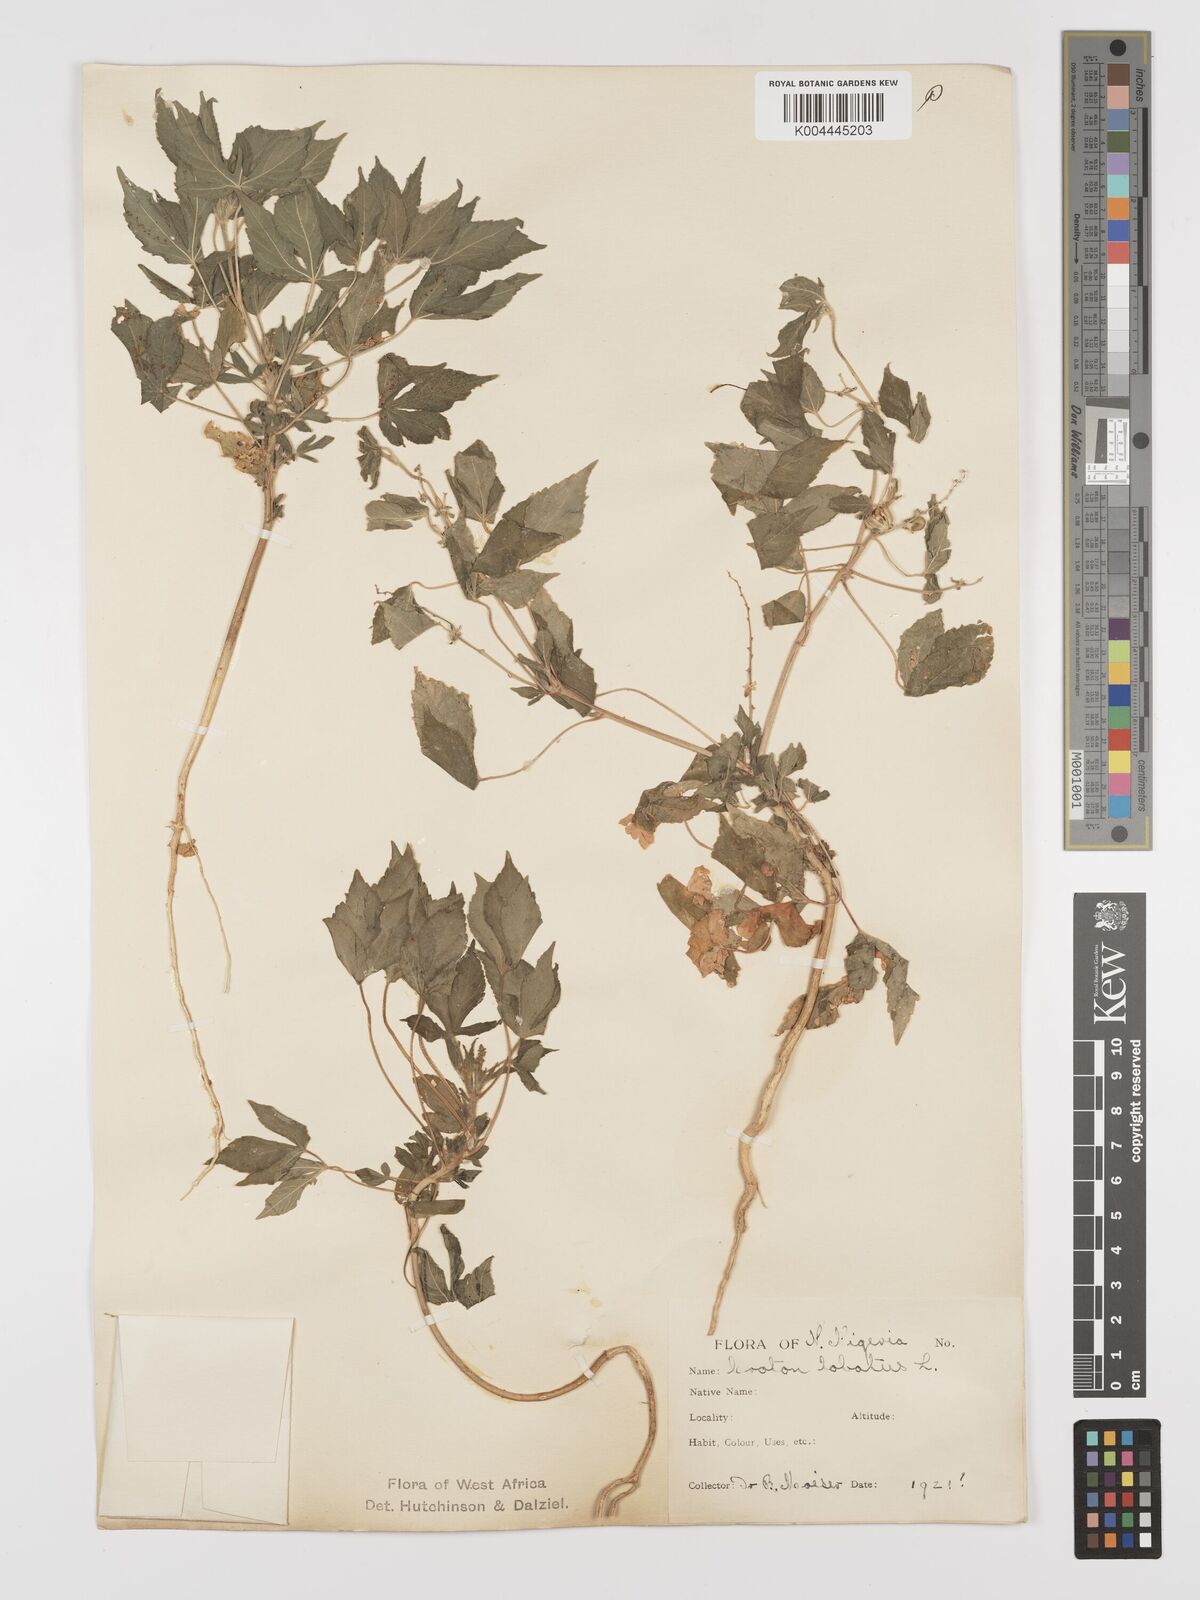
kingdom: Plantae
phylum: Tracheophyta
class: Magnoliopsida
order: Malpighiales
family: Euphorbiaceae
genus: Astraea
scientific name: Astraea lobata
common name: Lobed croton
